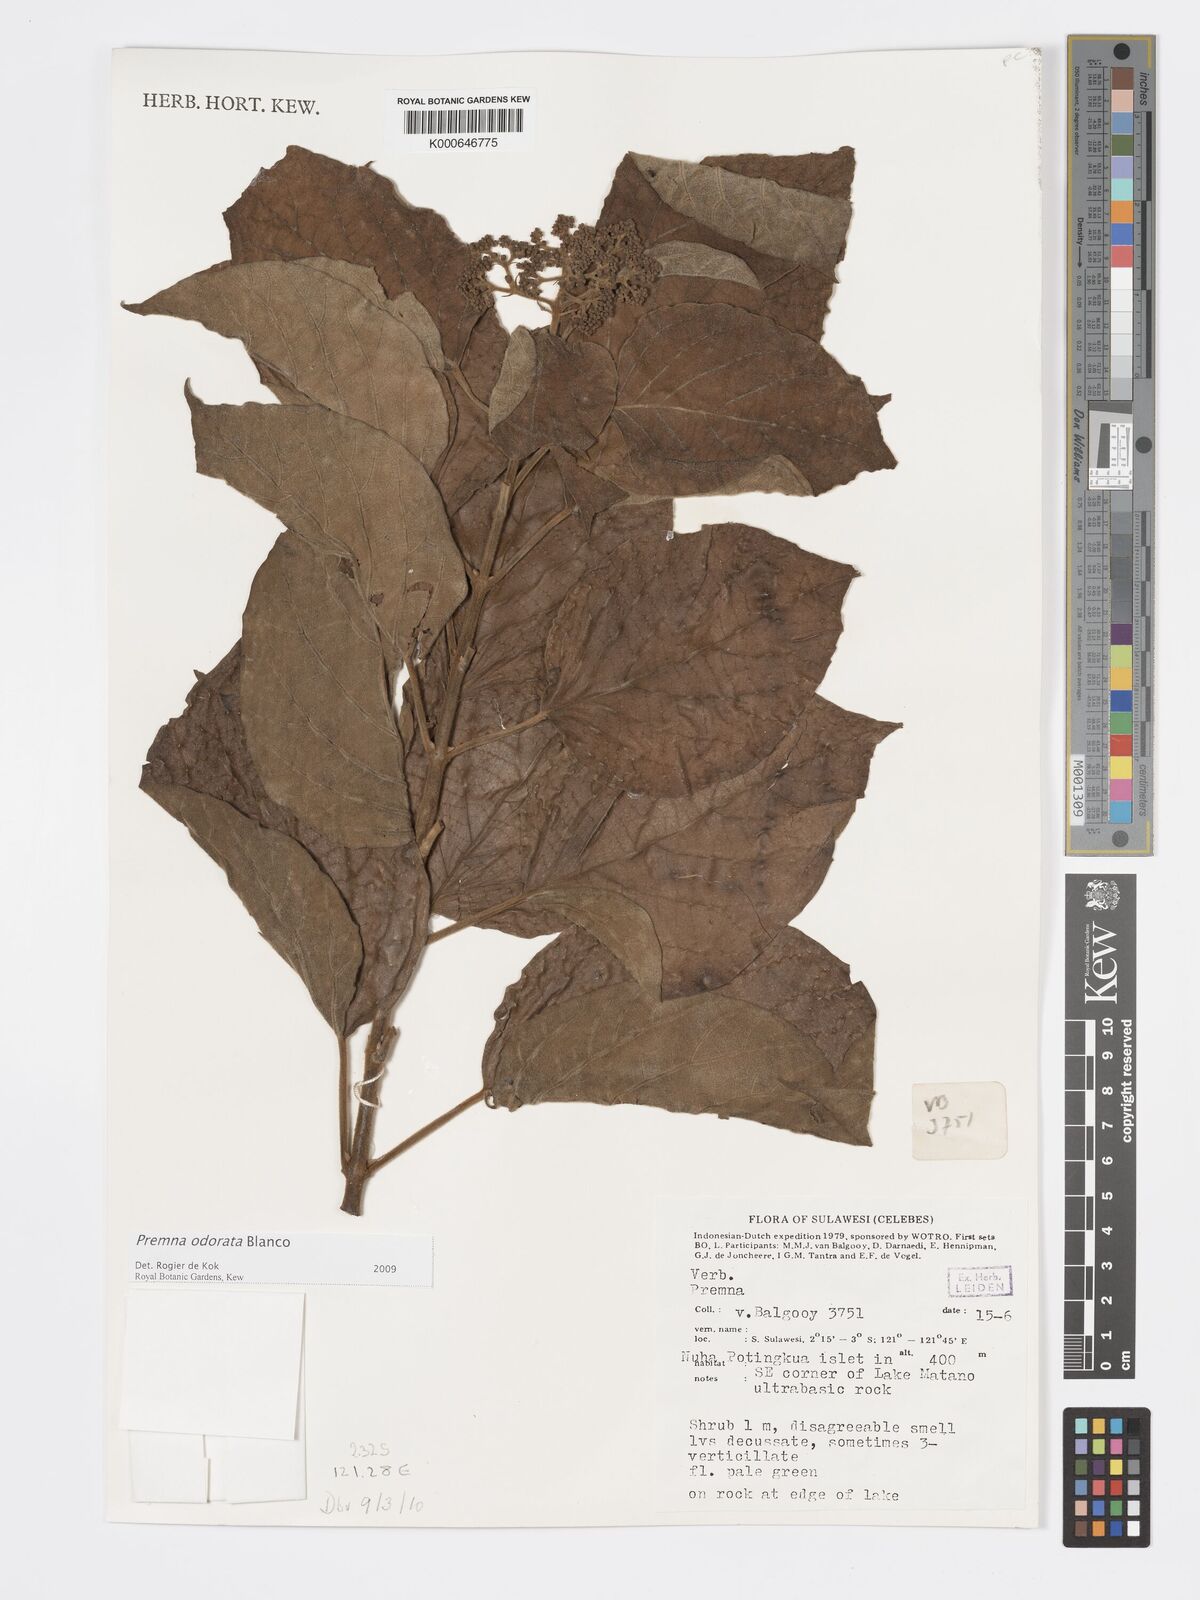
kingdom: Plantae
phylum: Tracheophyta
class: Magnoliopsida
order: Lamiales
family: Lamiaceae
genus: Premna
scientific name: Premna odorata
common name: Fragrant premna
